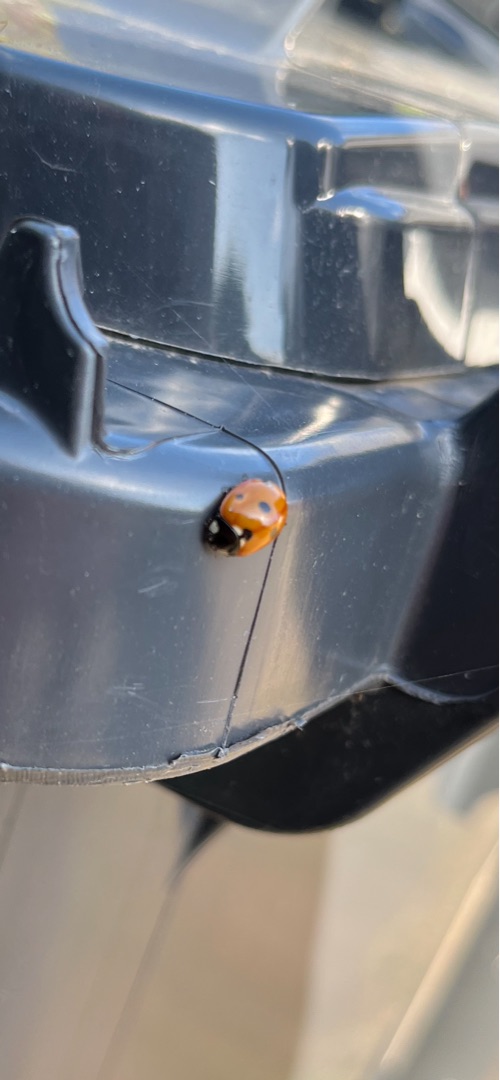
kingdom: Animalia
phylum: Arthropoda
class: Insecta
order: Coleoptera
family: Coccinellidae
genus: Coccinella
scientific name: Coccinella septempunctata
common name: Syvplettet mariehøne
